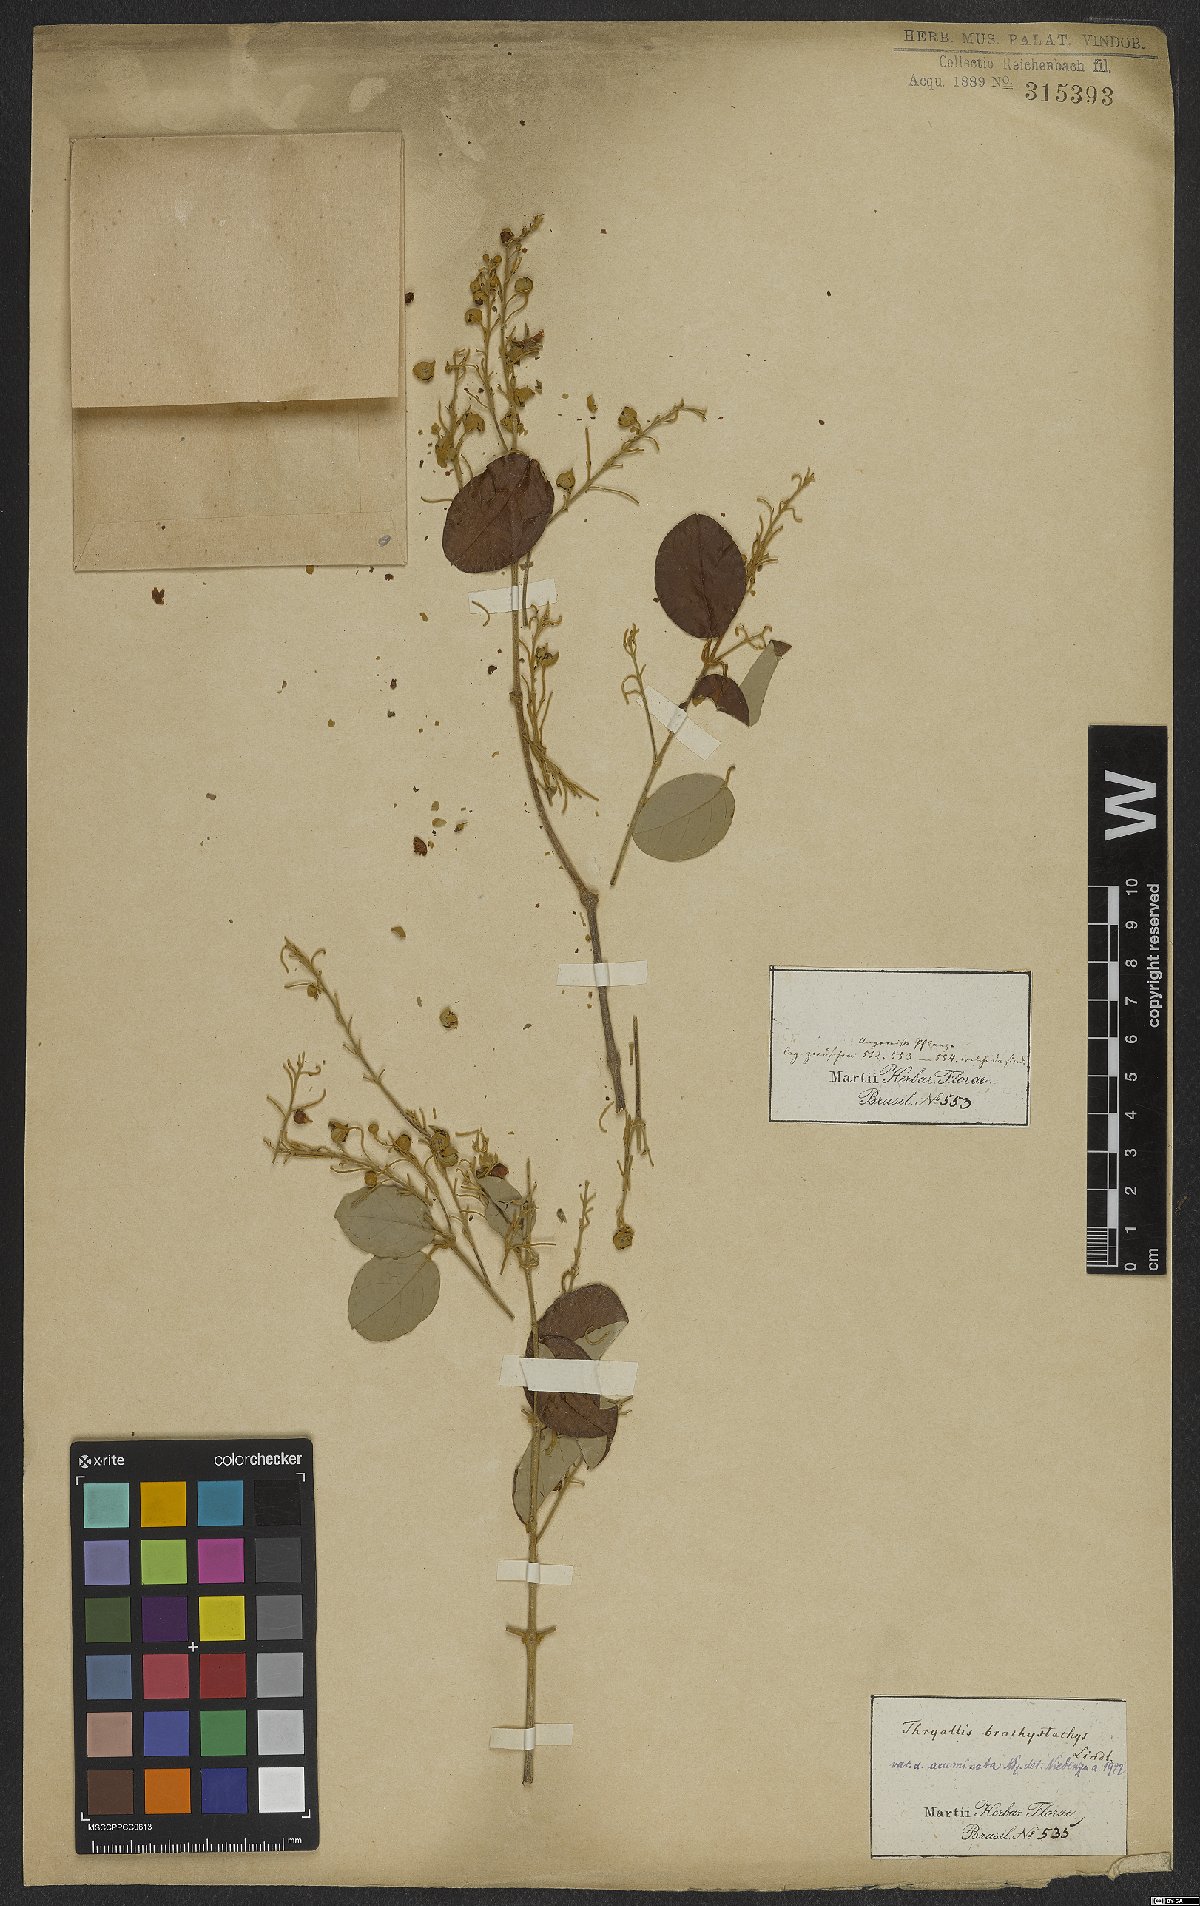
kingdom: Plantae
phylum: Tracheophyta
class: Magnoliopsida
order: Malpighiales
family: Malpighiaceae
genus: Thryallis
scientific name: Thryallis laburnum
